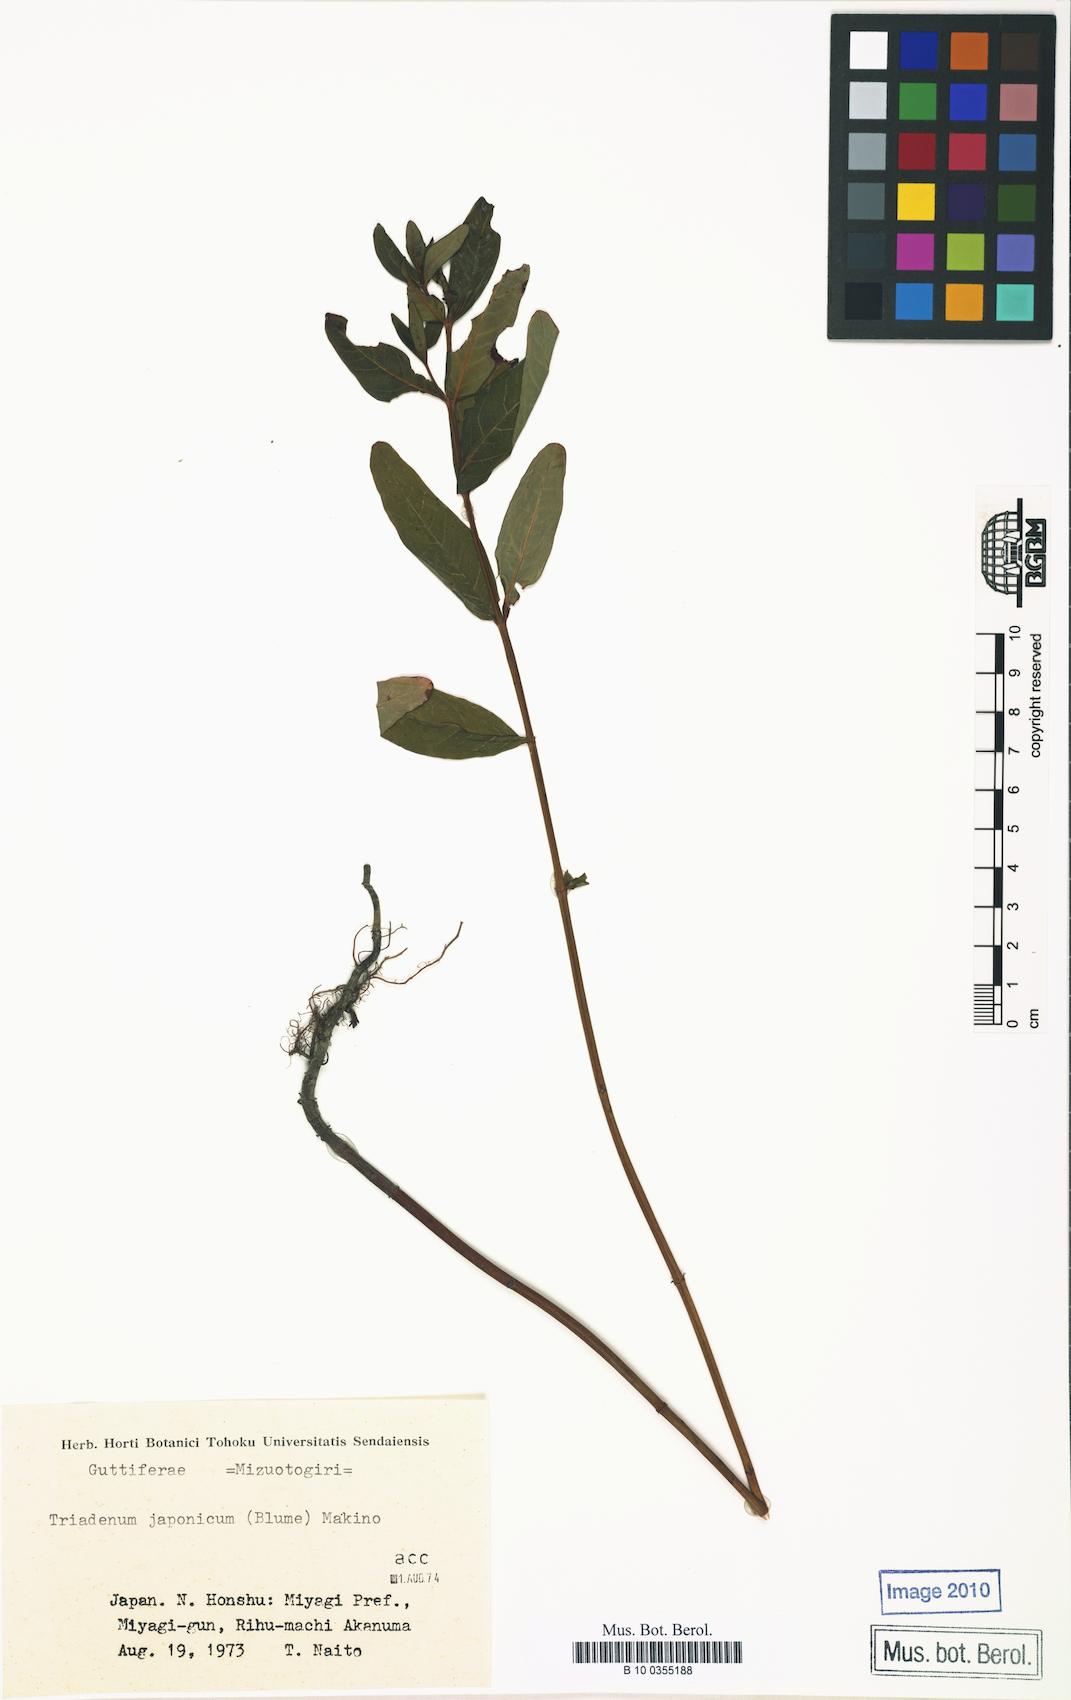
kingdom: Plantae
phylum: Tracheophyta
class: Magnoliopsida
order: Malpighiales
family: Hypericaceae
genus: Triadenum
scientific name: Triadenum japonicum
